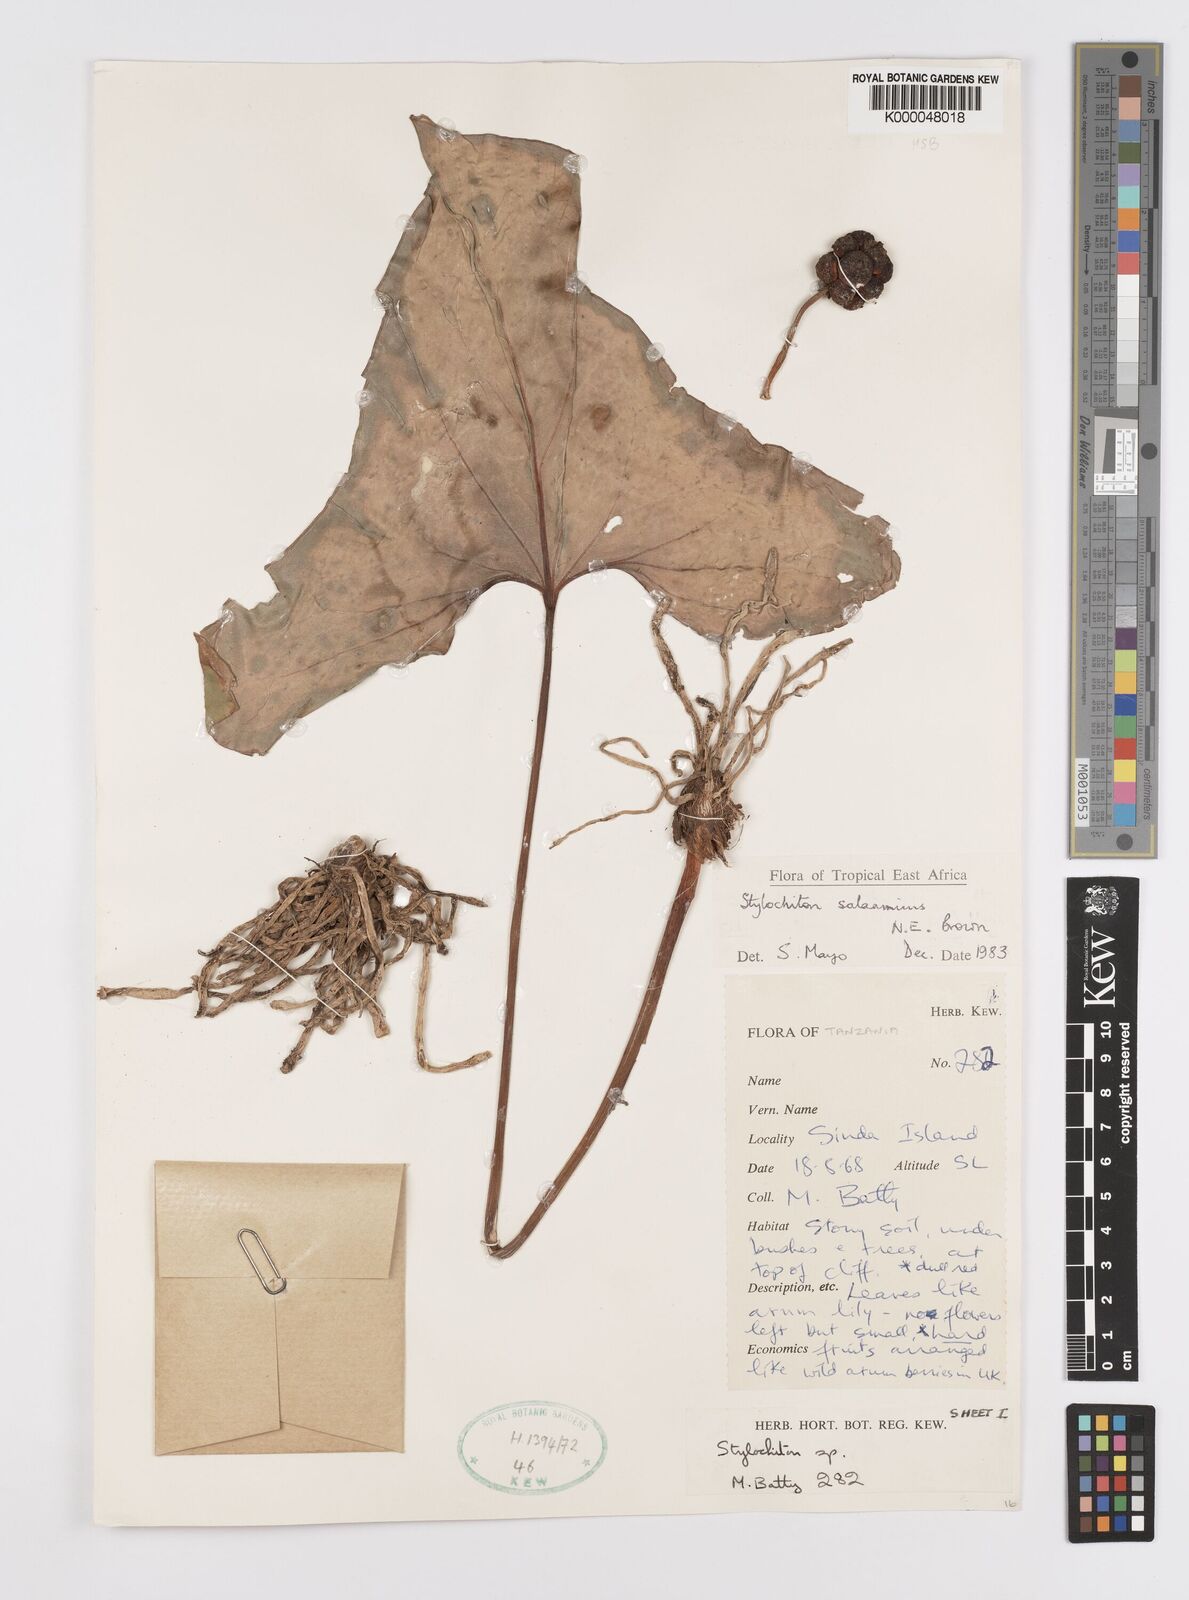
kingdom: Plantae
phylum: Tracheophyta
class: Liliopsida
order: Alismatales
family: Araceae
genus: Stylochaeton
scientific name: Stylochaeton salaamicum
